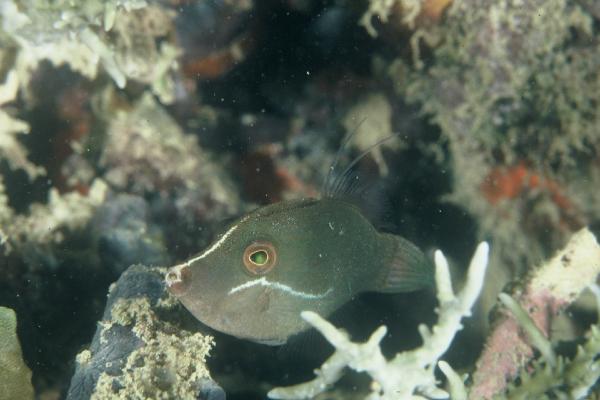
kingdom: Animalia
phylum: Chordata
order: Tetraodontiformes
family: Monacanthidae
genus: Pervagor
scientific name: Pervagor nigrolineatus
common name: Blacklined filefish
